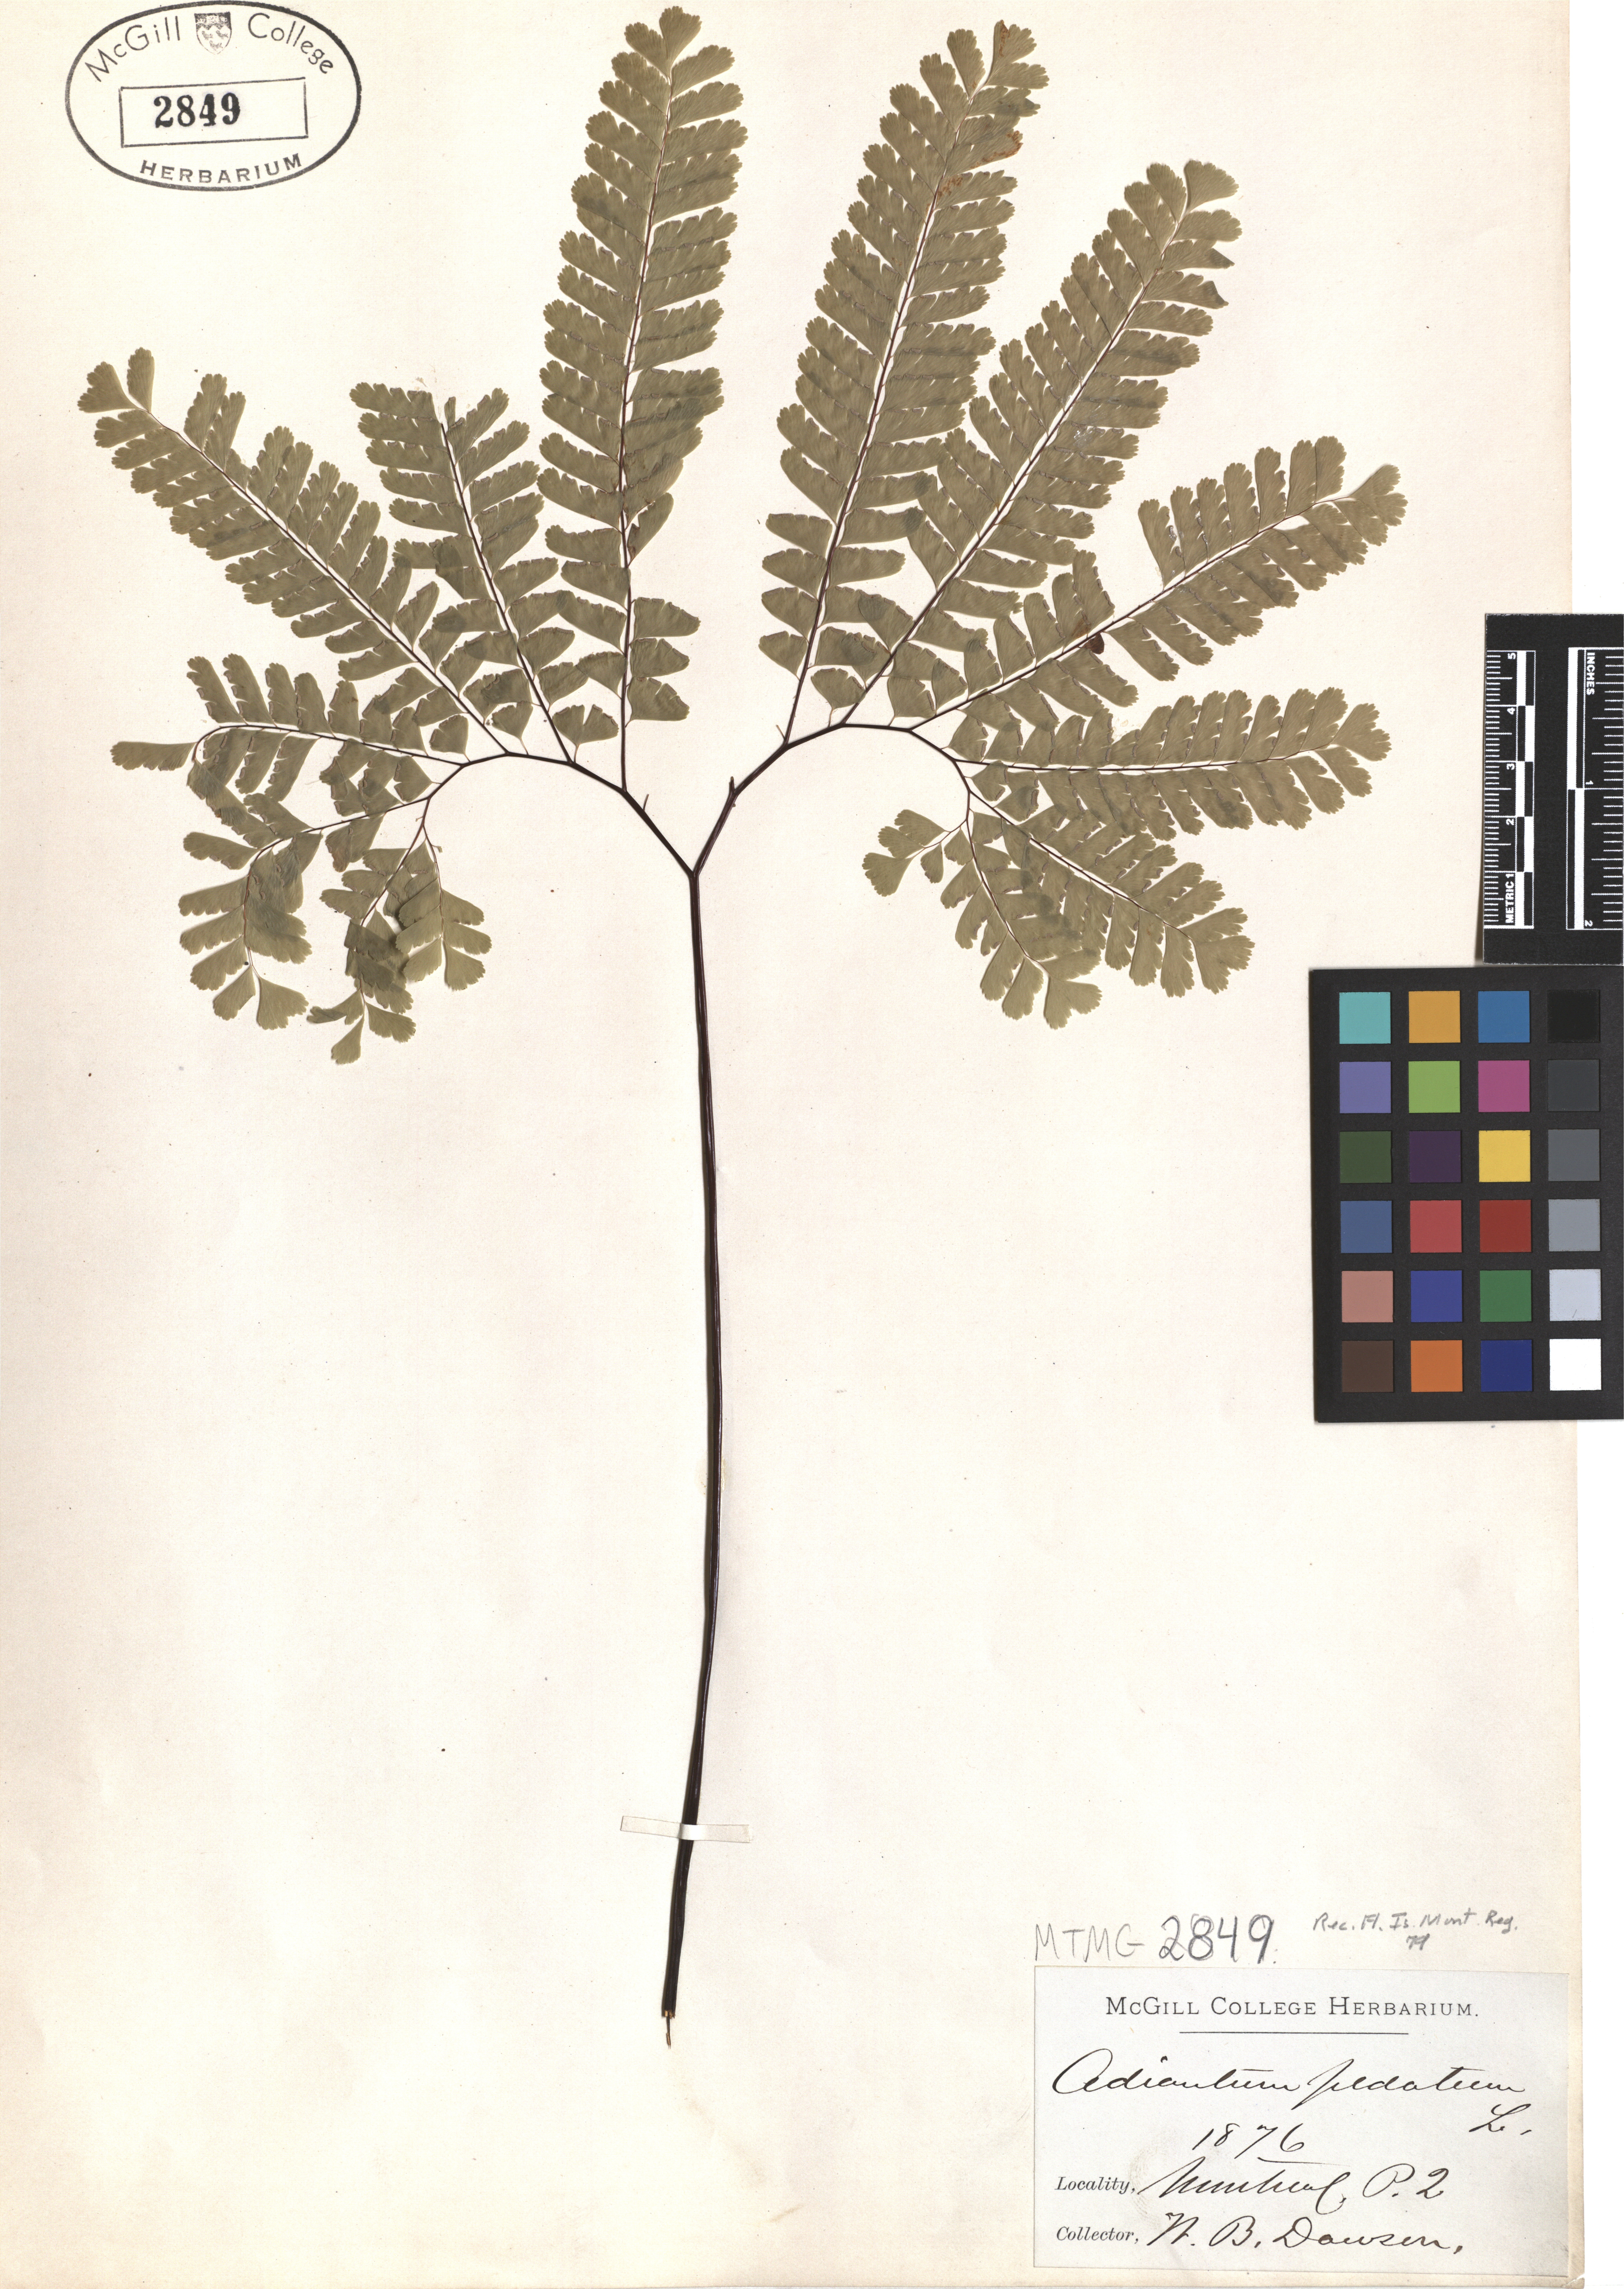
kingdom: Plantae
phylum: Tracheophyta
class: Polypodiopsida
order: Polypodiales
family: Pteridaceae
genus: Adiantum
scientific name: Adiantum pedatum
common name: Five-finger fern
